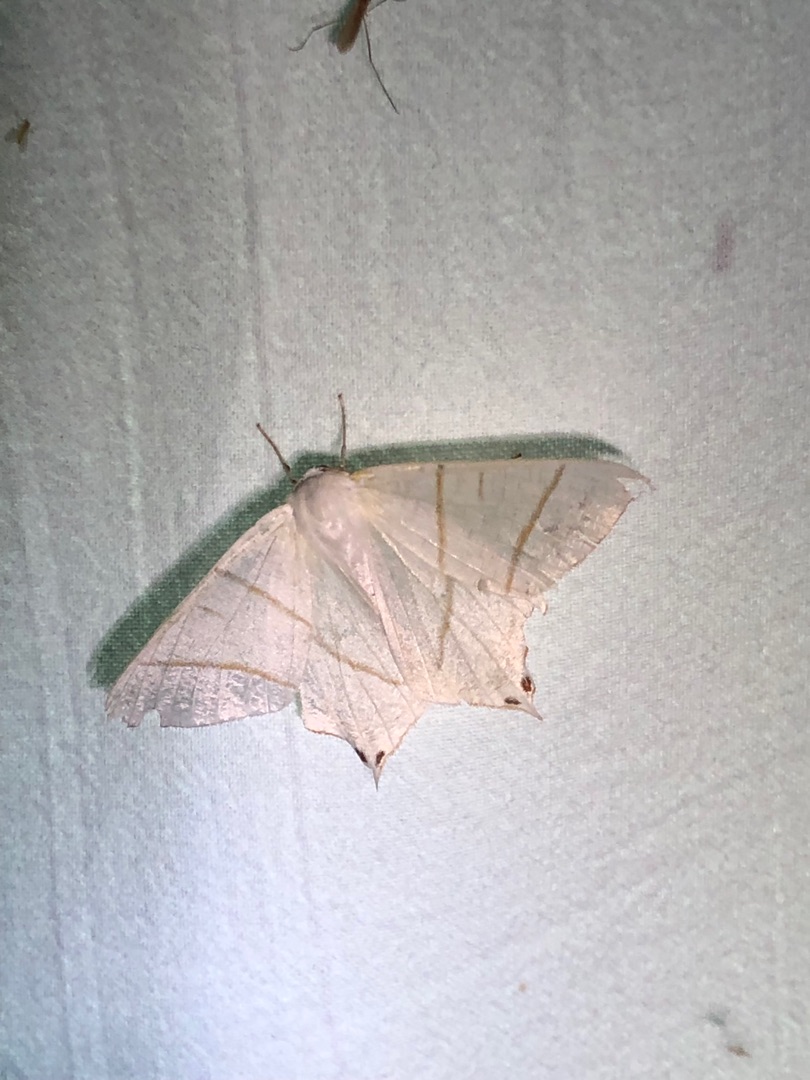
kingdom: Animalia
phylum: Arthropoda
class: Insecta
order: Lepidoptera
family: Geometridae
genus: Ourapteryx
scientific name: Ourapteryx sambucaria
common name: Natsvalehale
